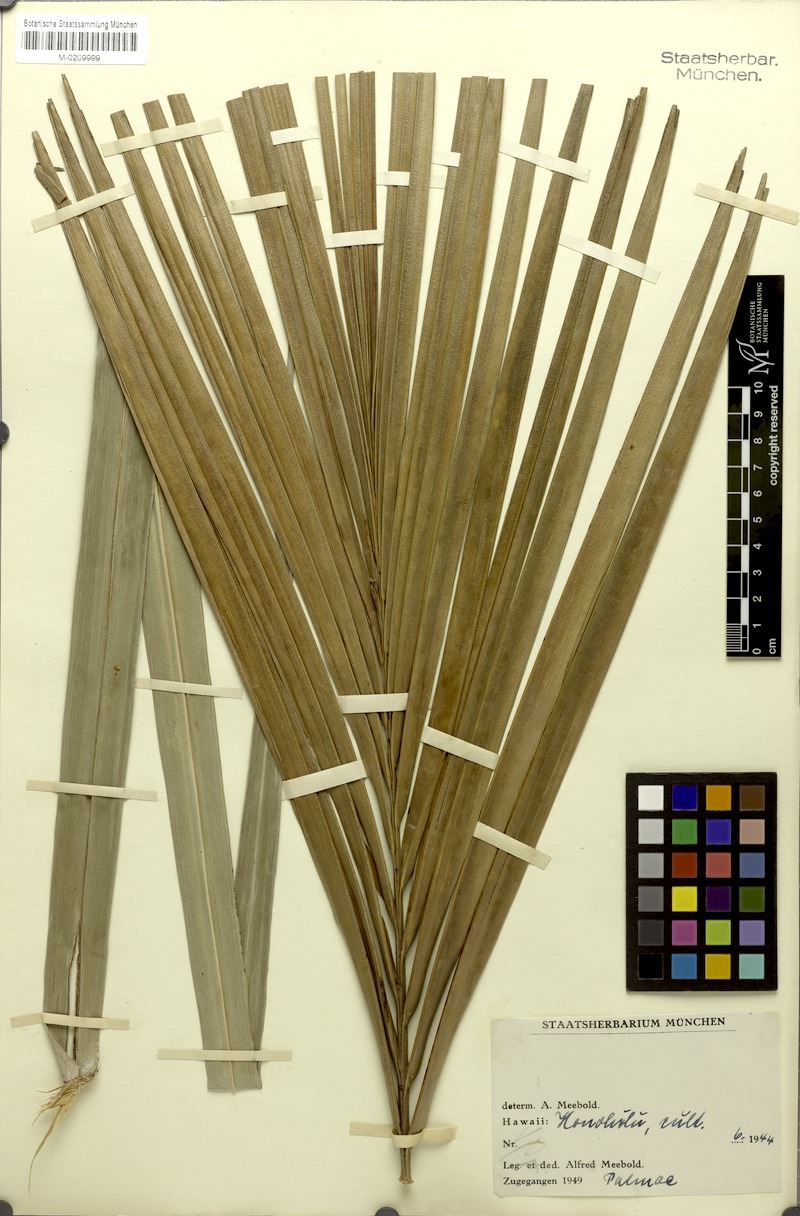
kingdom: Plantae
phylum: Tracheophyta
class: Liliopsida
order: Arecales
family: Arecaceae
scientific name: Arecaceae
